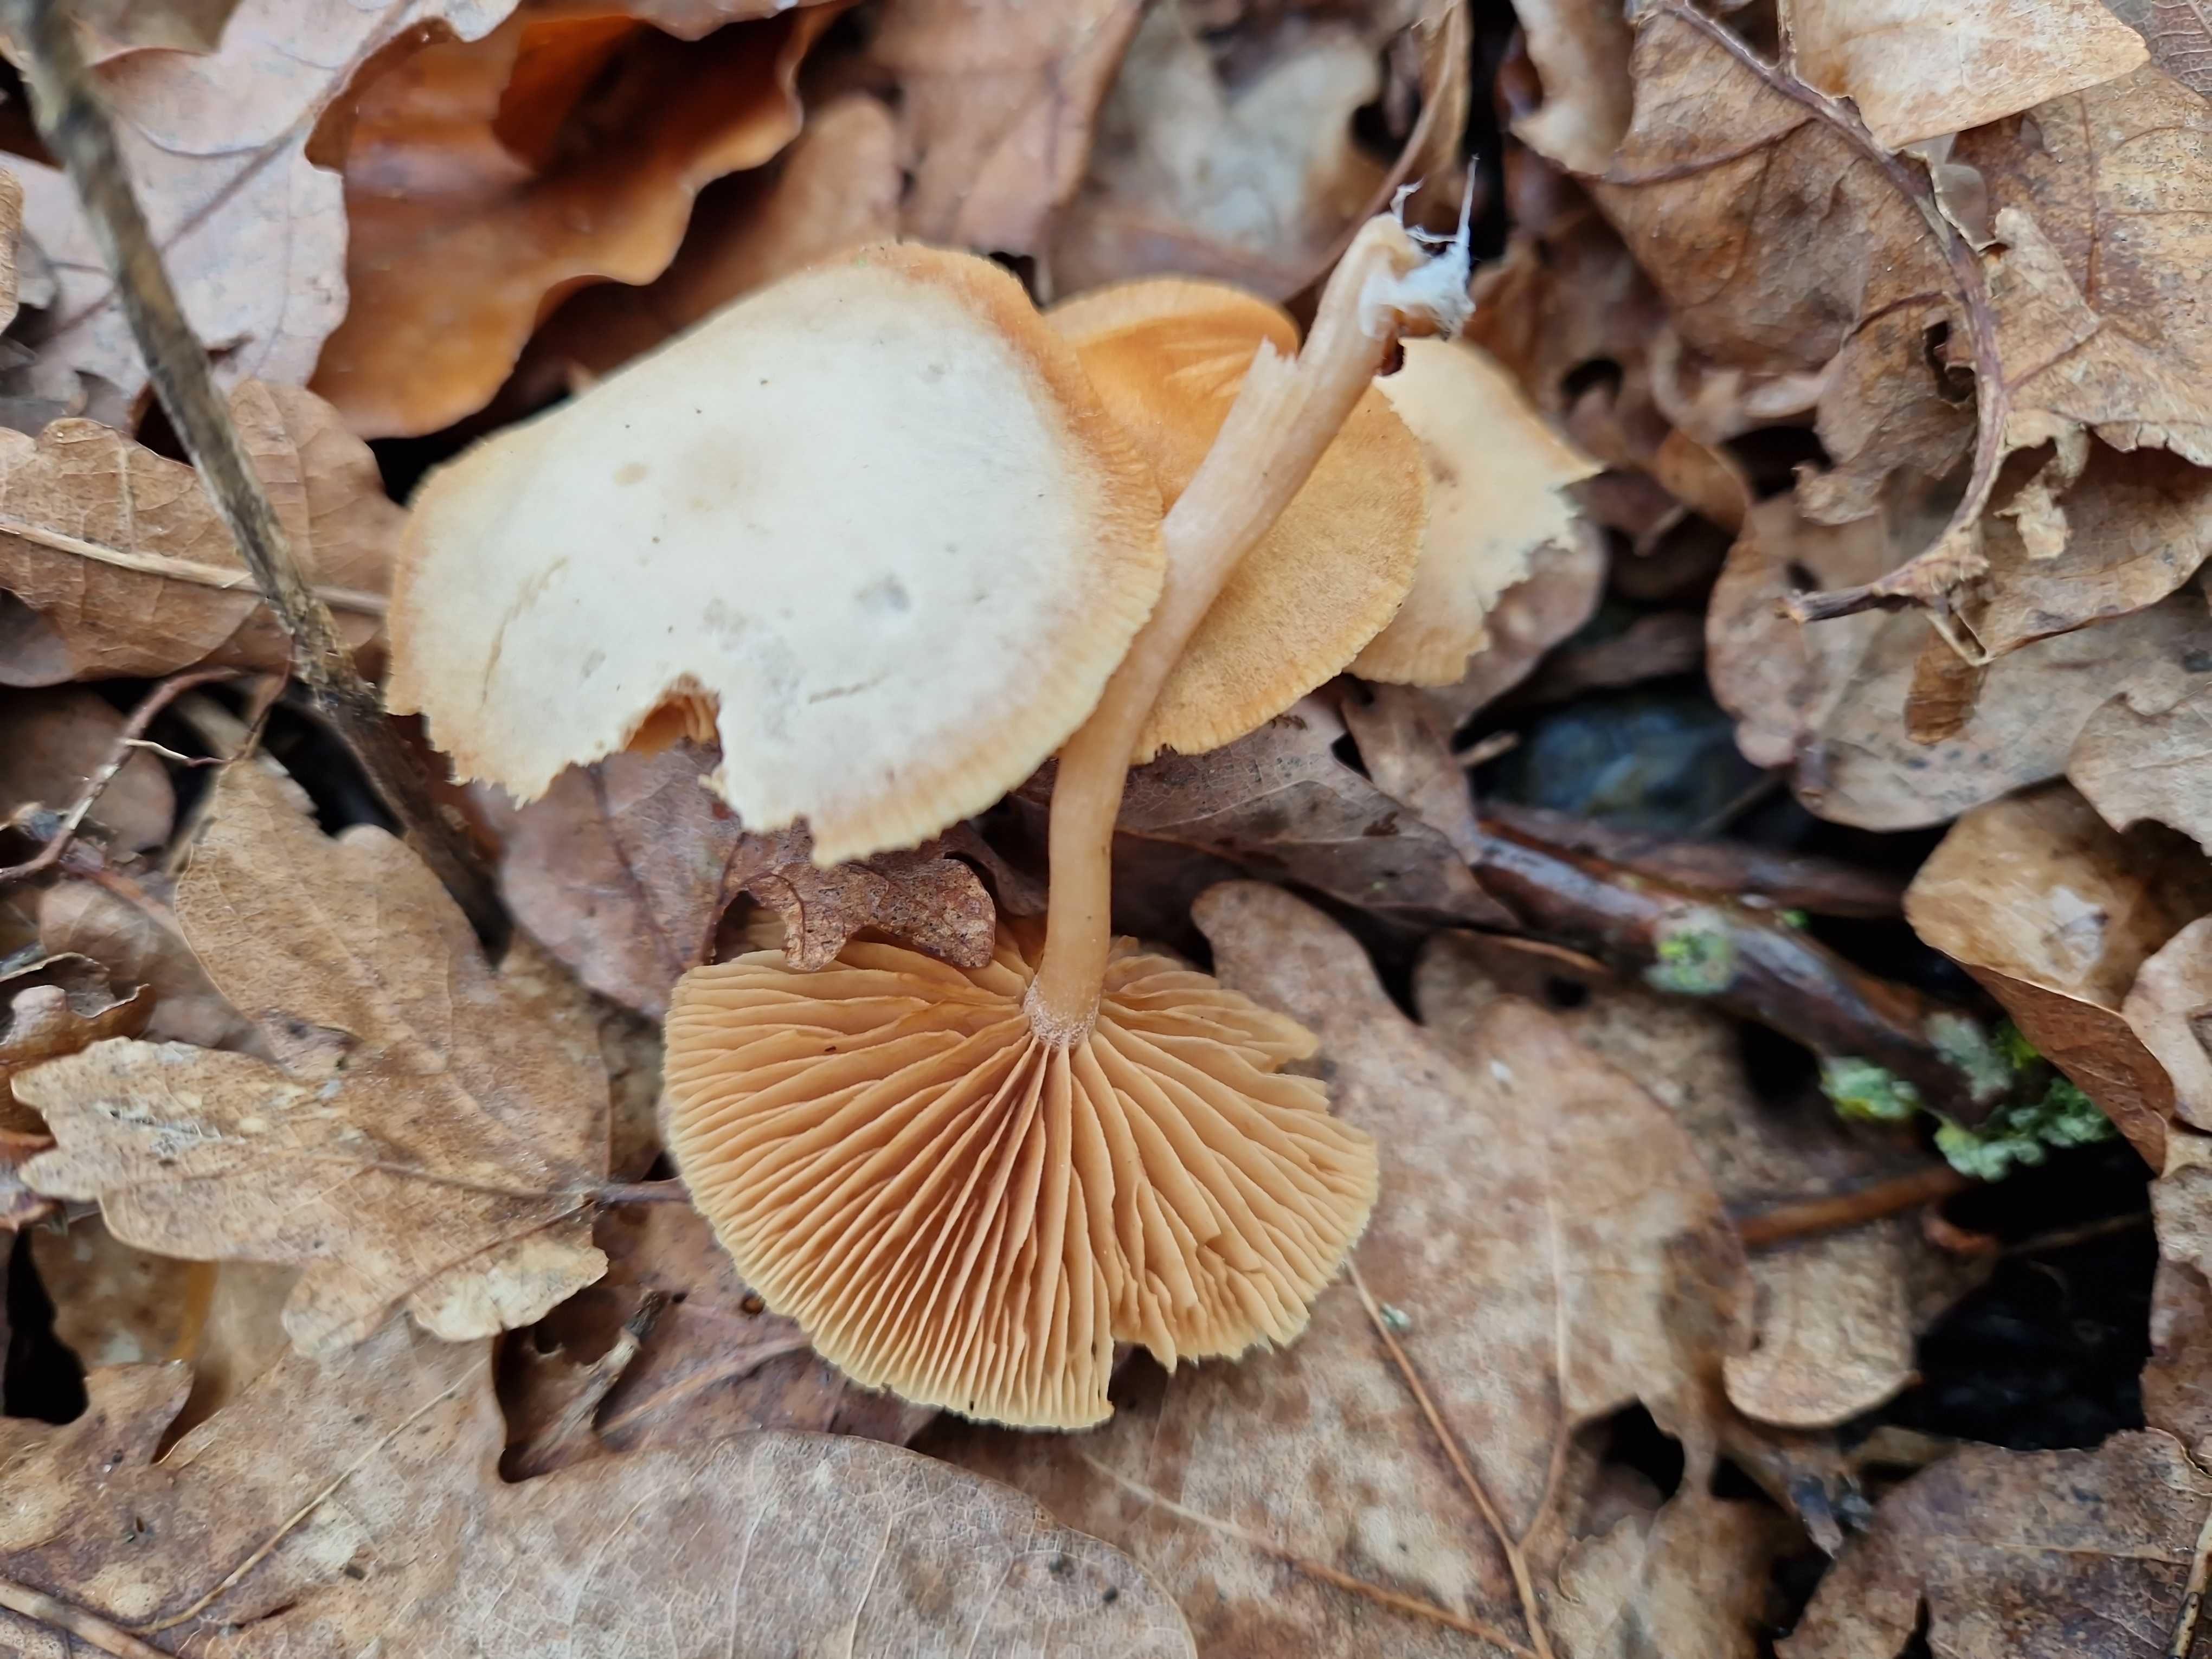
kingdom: Fungi
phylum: Basidiomycota
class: Agaricomycetes
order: Agaricales
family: Tubariaceae
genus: Tubaria
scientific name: Tubaria furfuracea
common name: kliddet fnughat
